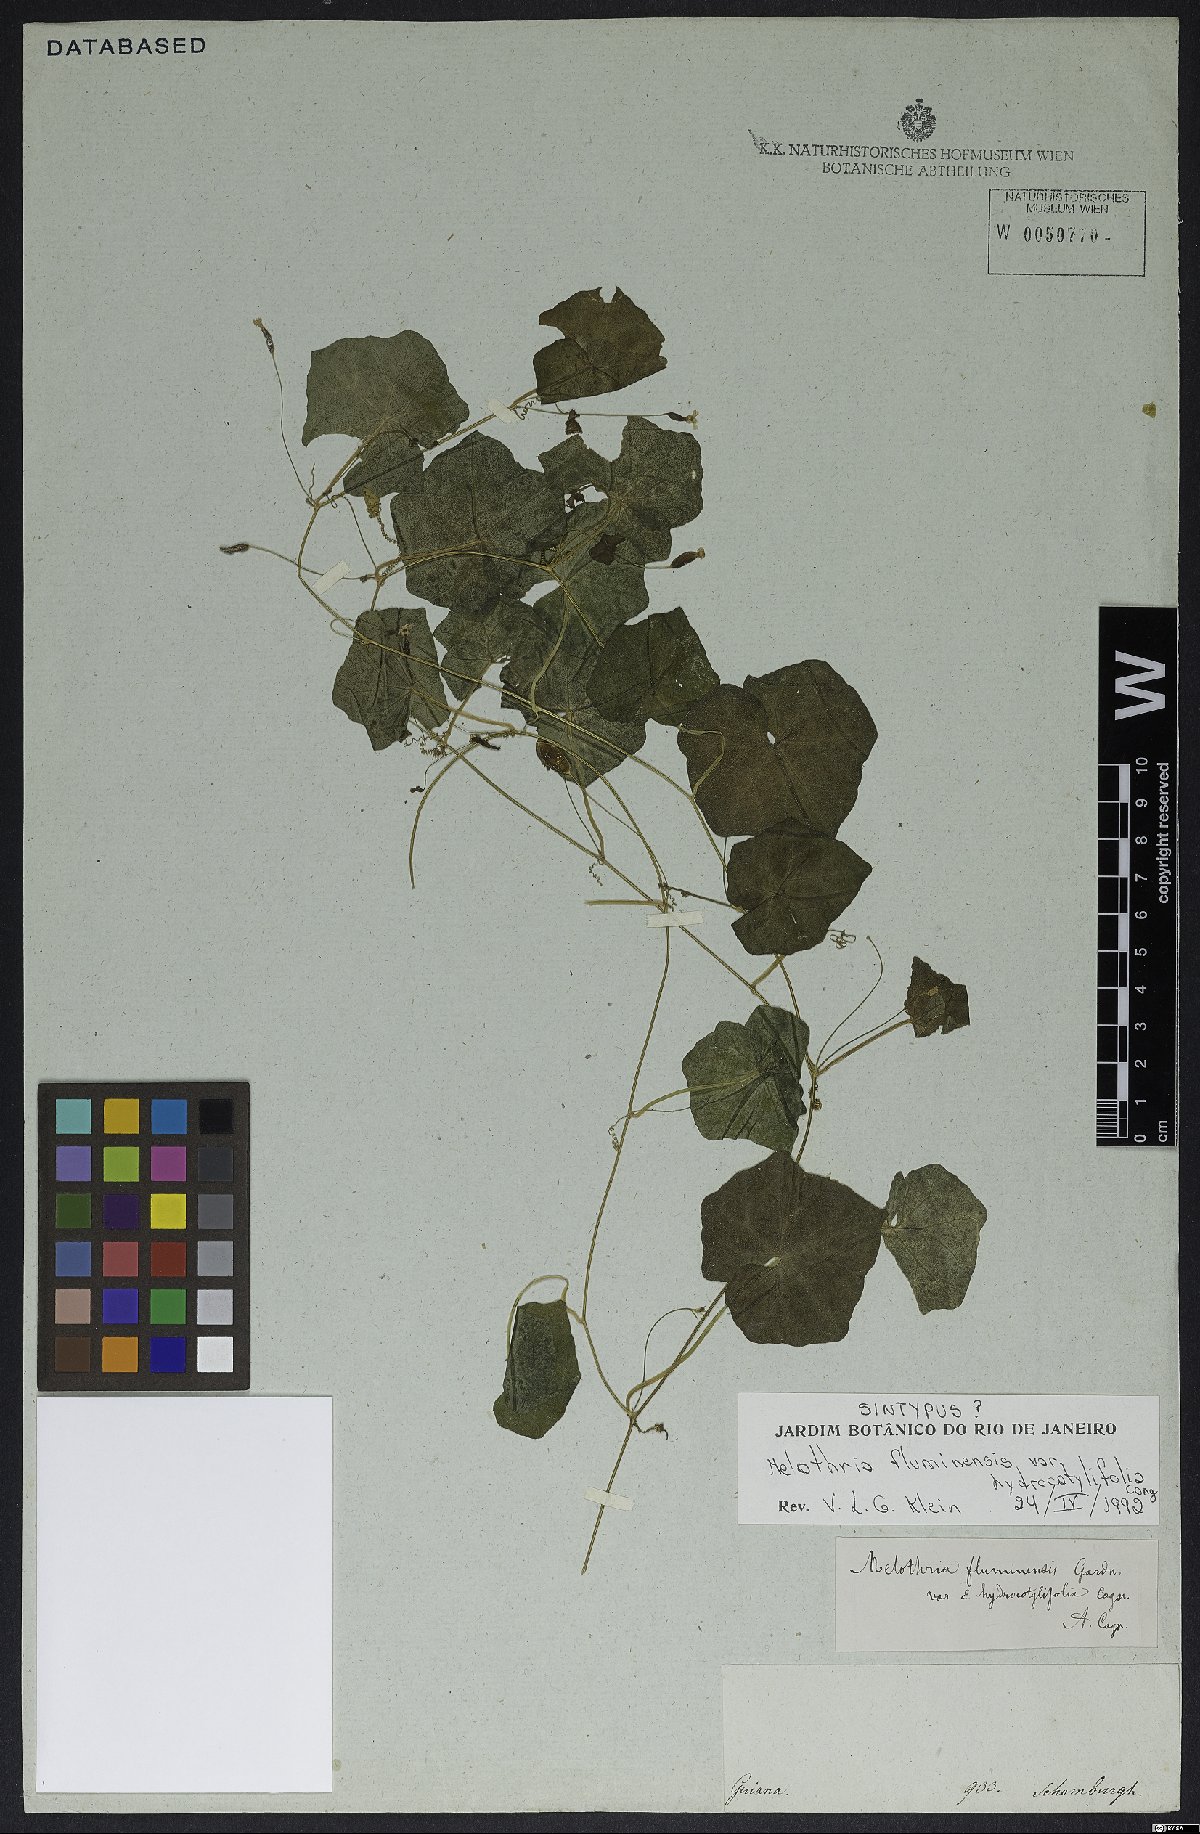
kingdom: Plantae
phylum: Tracheophyta
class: Magnoliopsida
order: Cucurbitales
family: Cucurbitaceae
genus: Melothria
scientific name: Melothria fluminensis
